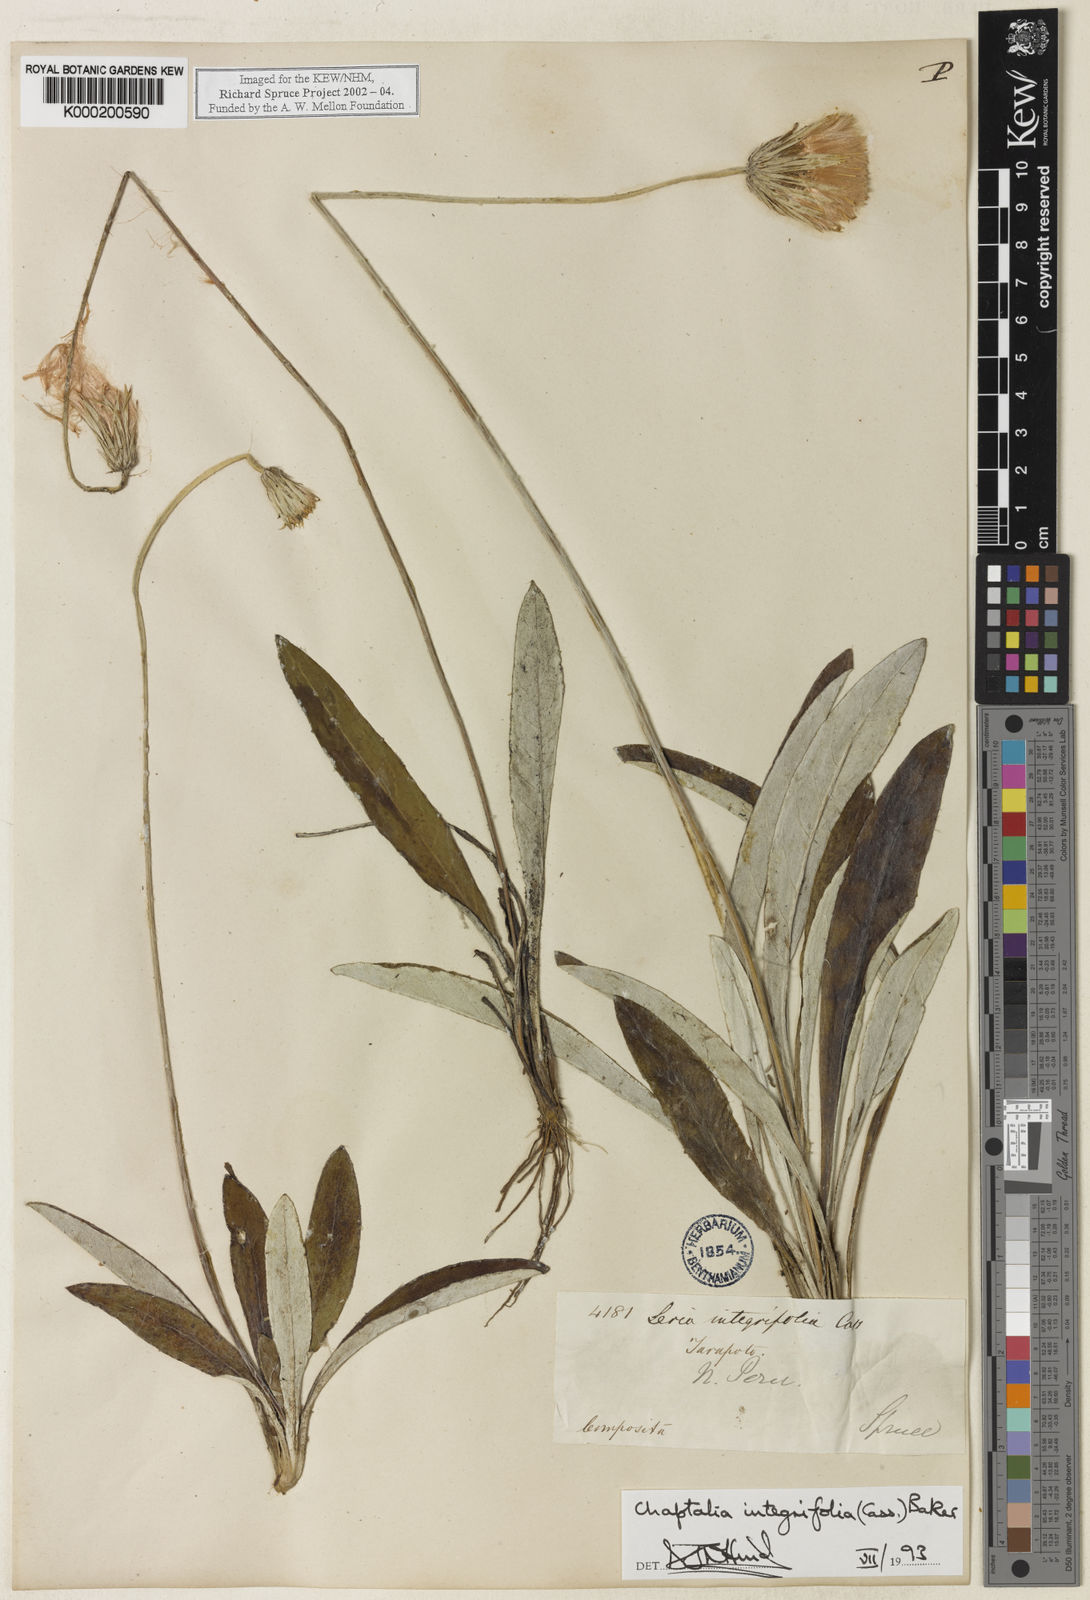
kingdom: Plantae
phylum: Tracheophyta
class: Magnoliopsida
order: Asterales
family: Asteraceae
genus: Chaptalia
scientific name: Chaptalia integerrima
